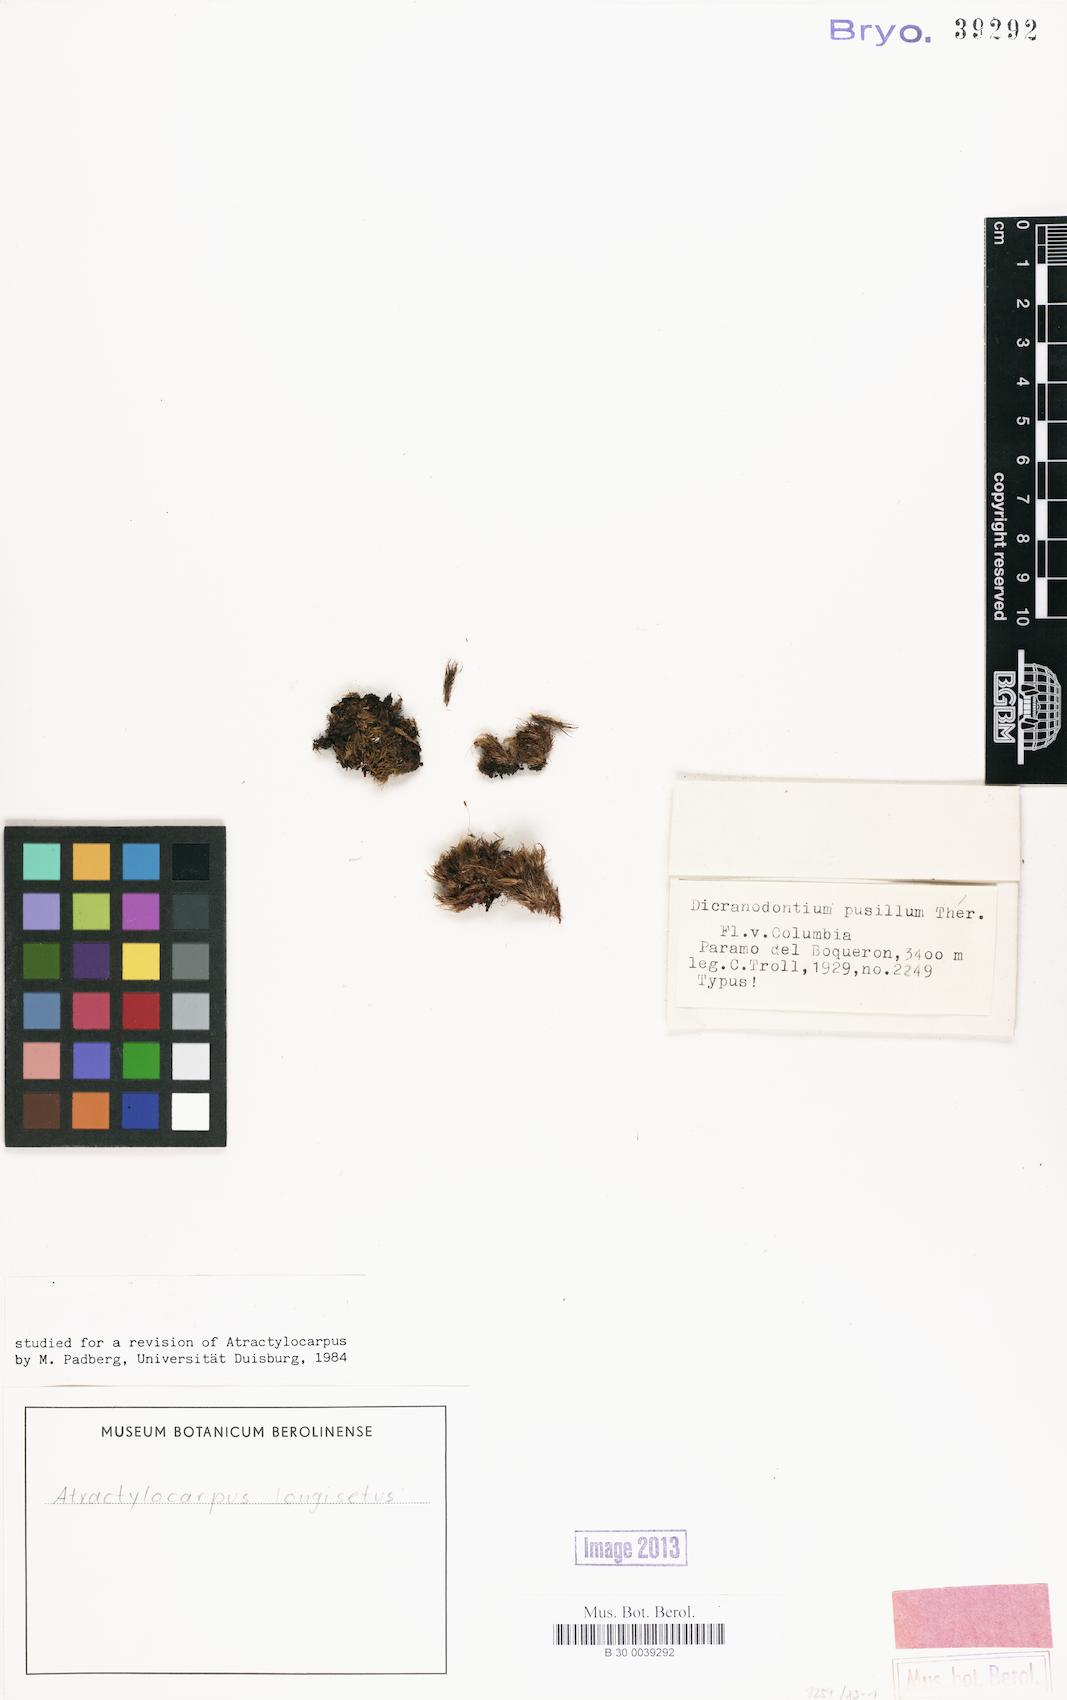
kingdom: Plantae
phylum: Bryophyta
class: Bryopsida
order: Dicranales
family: Leucobryaceae
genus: Atractylocarpus
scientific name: Atractylocarpus longisetus
